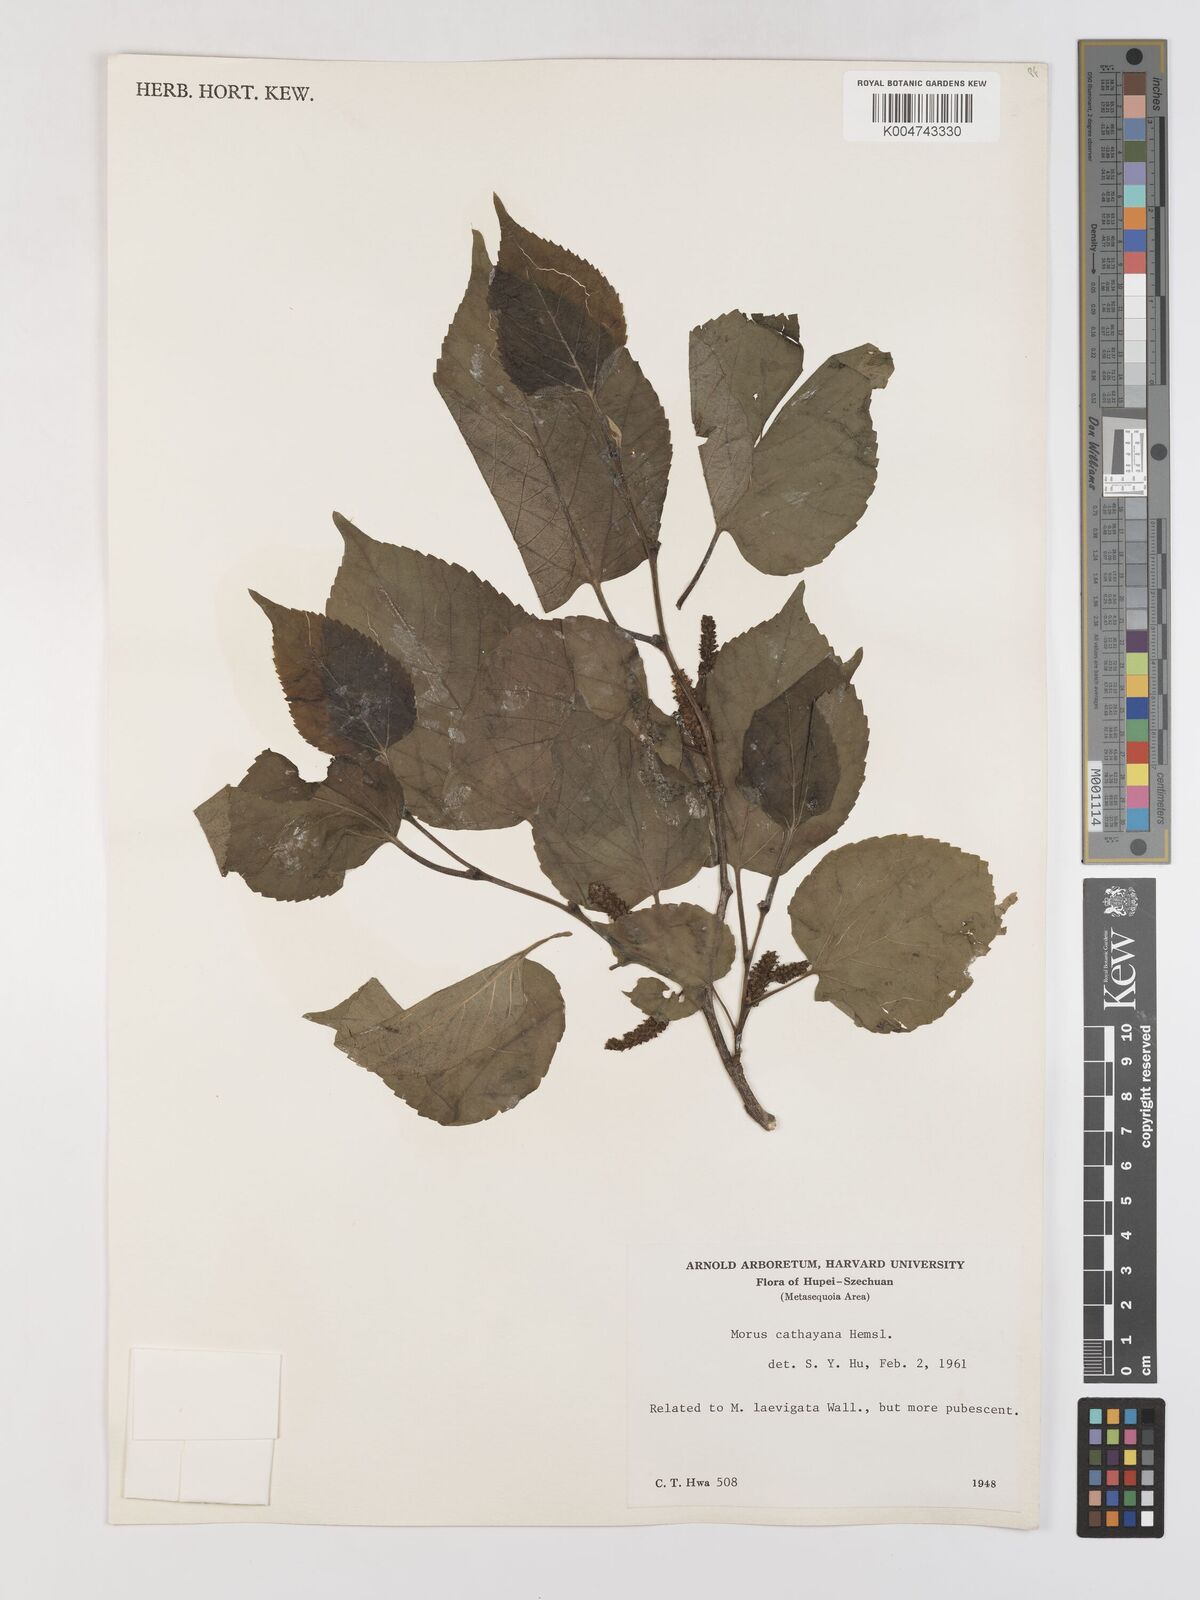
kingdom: Plantae
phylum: Tracheophyta
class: Magnoliopsida
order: Rosales
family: Moraceae
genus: Morus
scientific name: Morus cathayana
